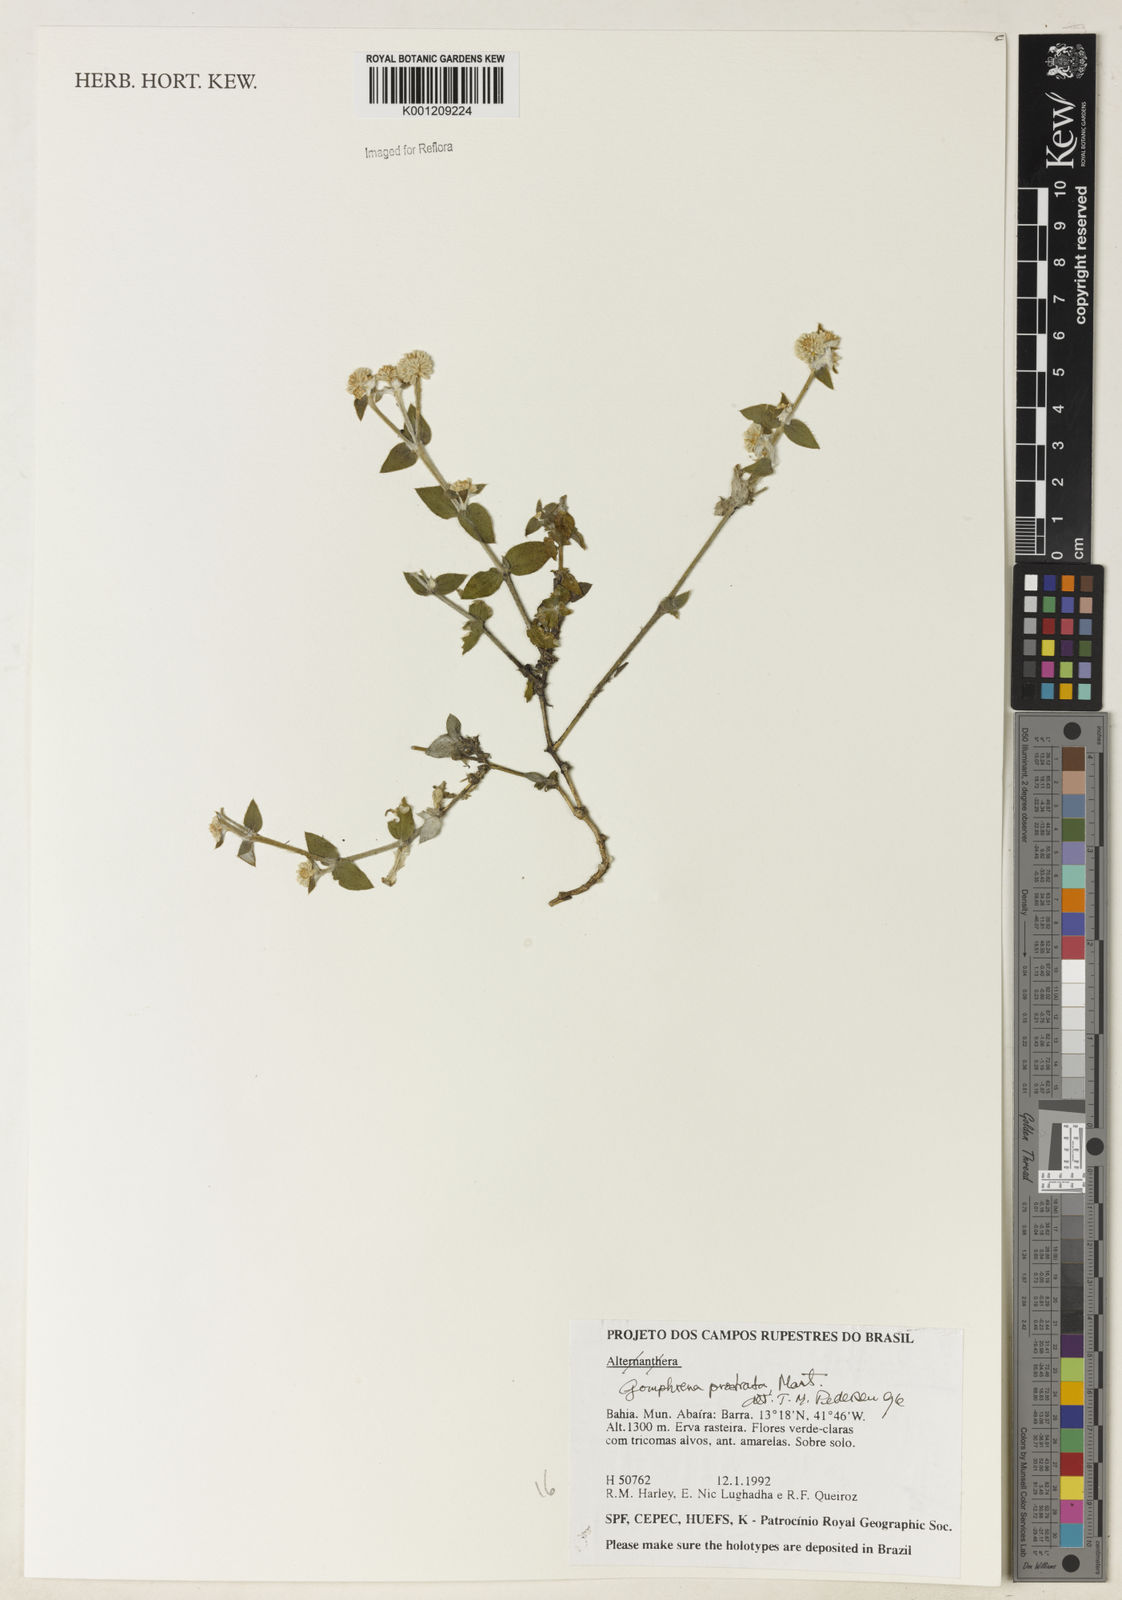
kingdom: Plantae
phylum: Tracheophyta
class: Magnoliopsida
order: Caryophyllales
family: Amaranthaceae
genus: Gomphrena
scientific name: Gomphrena prostrata
